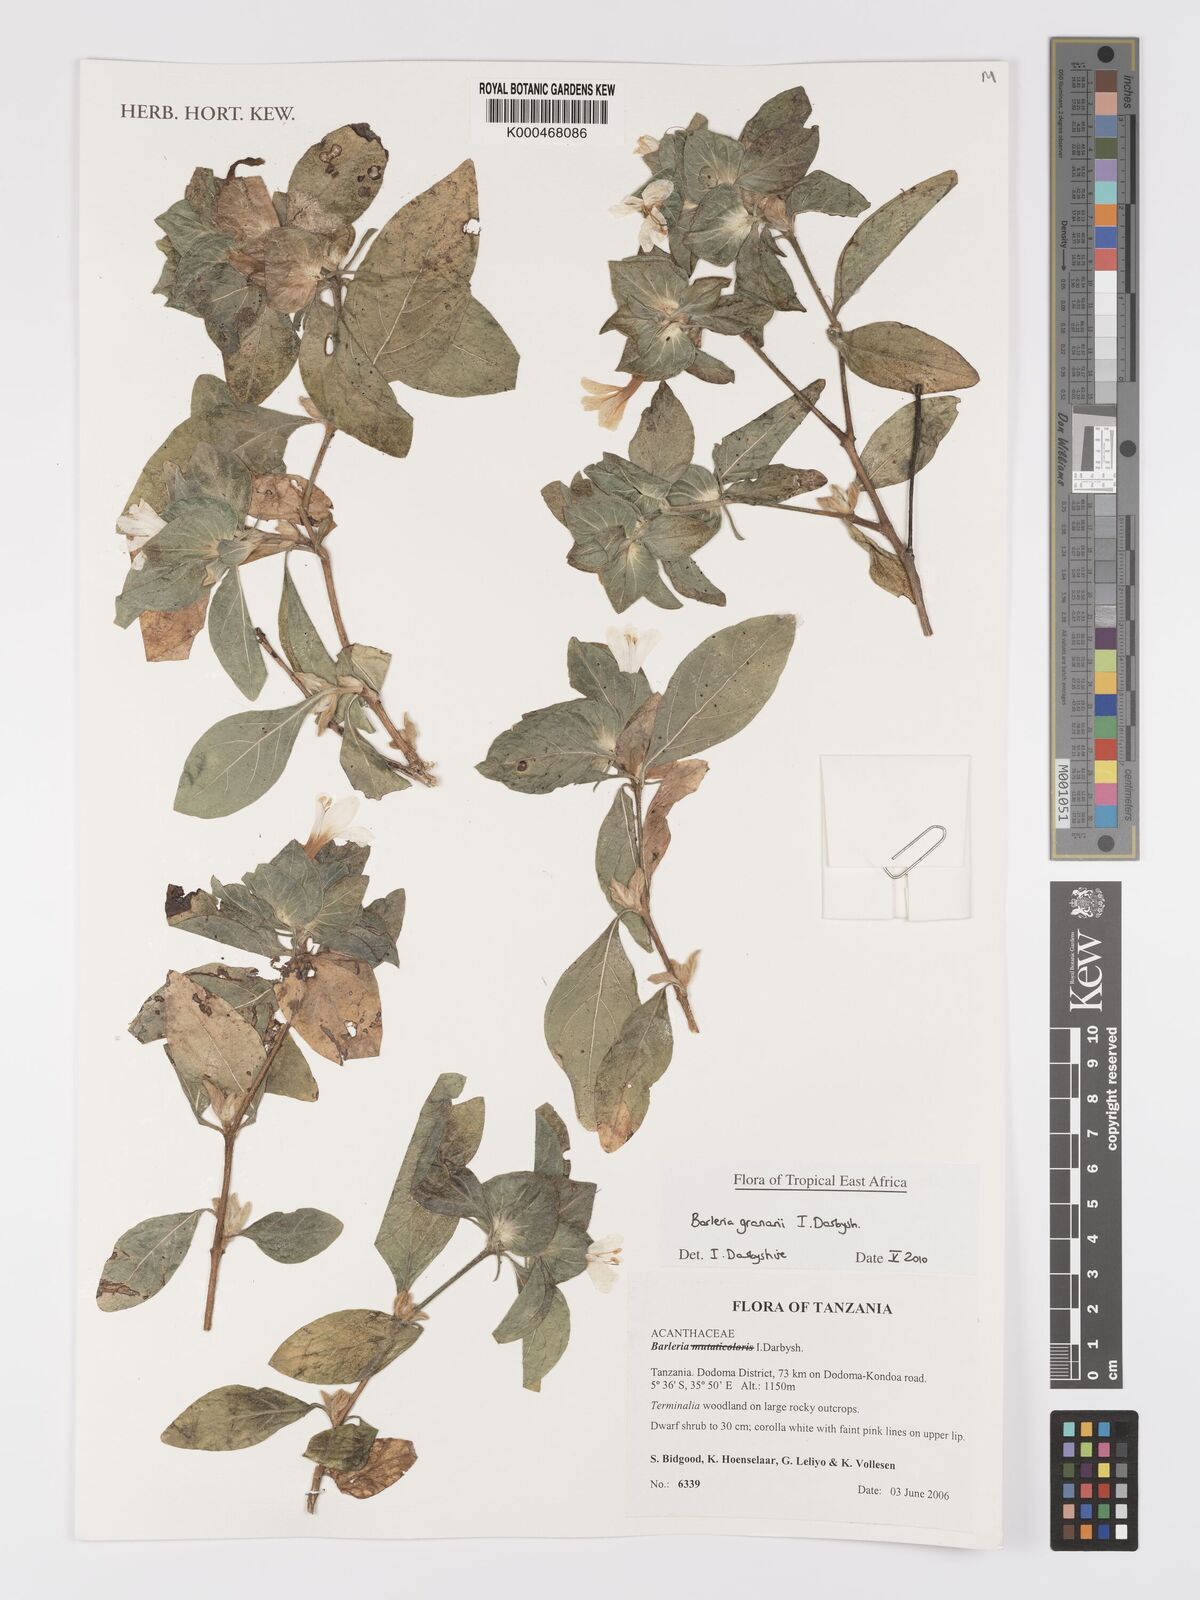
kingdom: Plantae
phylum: Tracheophyta
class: Magnoliopsida
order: Lamiales
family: Acanthaceae
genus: Barleria
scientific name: Barleria
